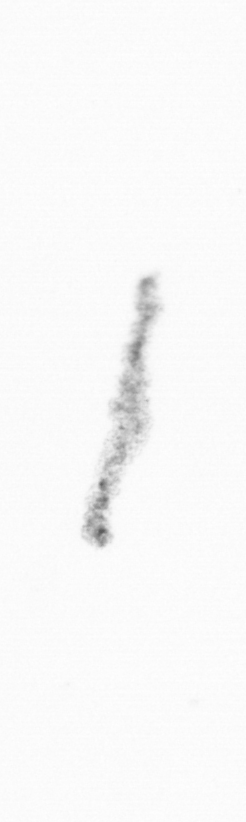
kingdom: Chromista
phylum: Ochrophyta
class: Bacillariophyceae
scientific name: Bacillariophyceae
